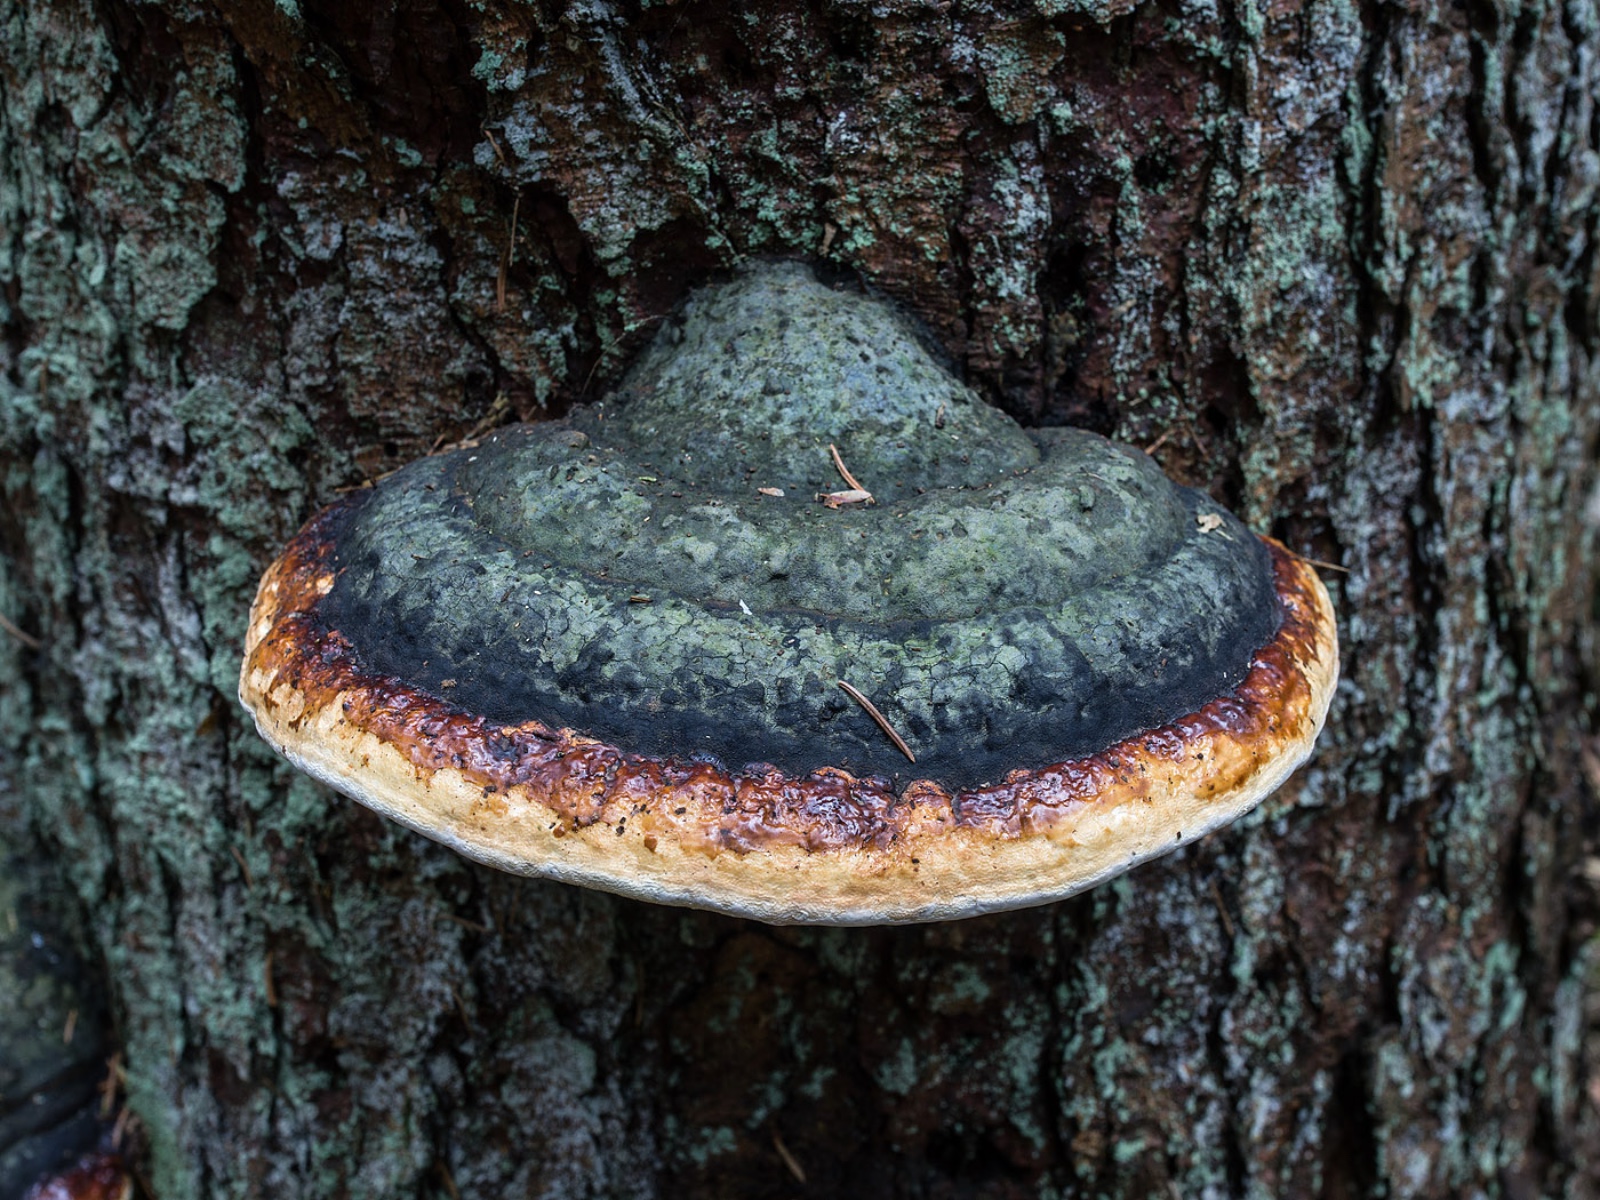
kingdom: Fungi
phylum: Basidiomycota
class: Agaricomycetes
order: Polyporales
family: Fomitopsidaceae
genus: Fomitopsis
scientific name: Fomitopsis pinicola
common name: randbæltet hovporesvamp
